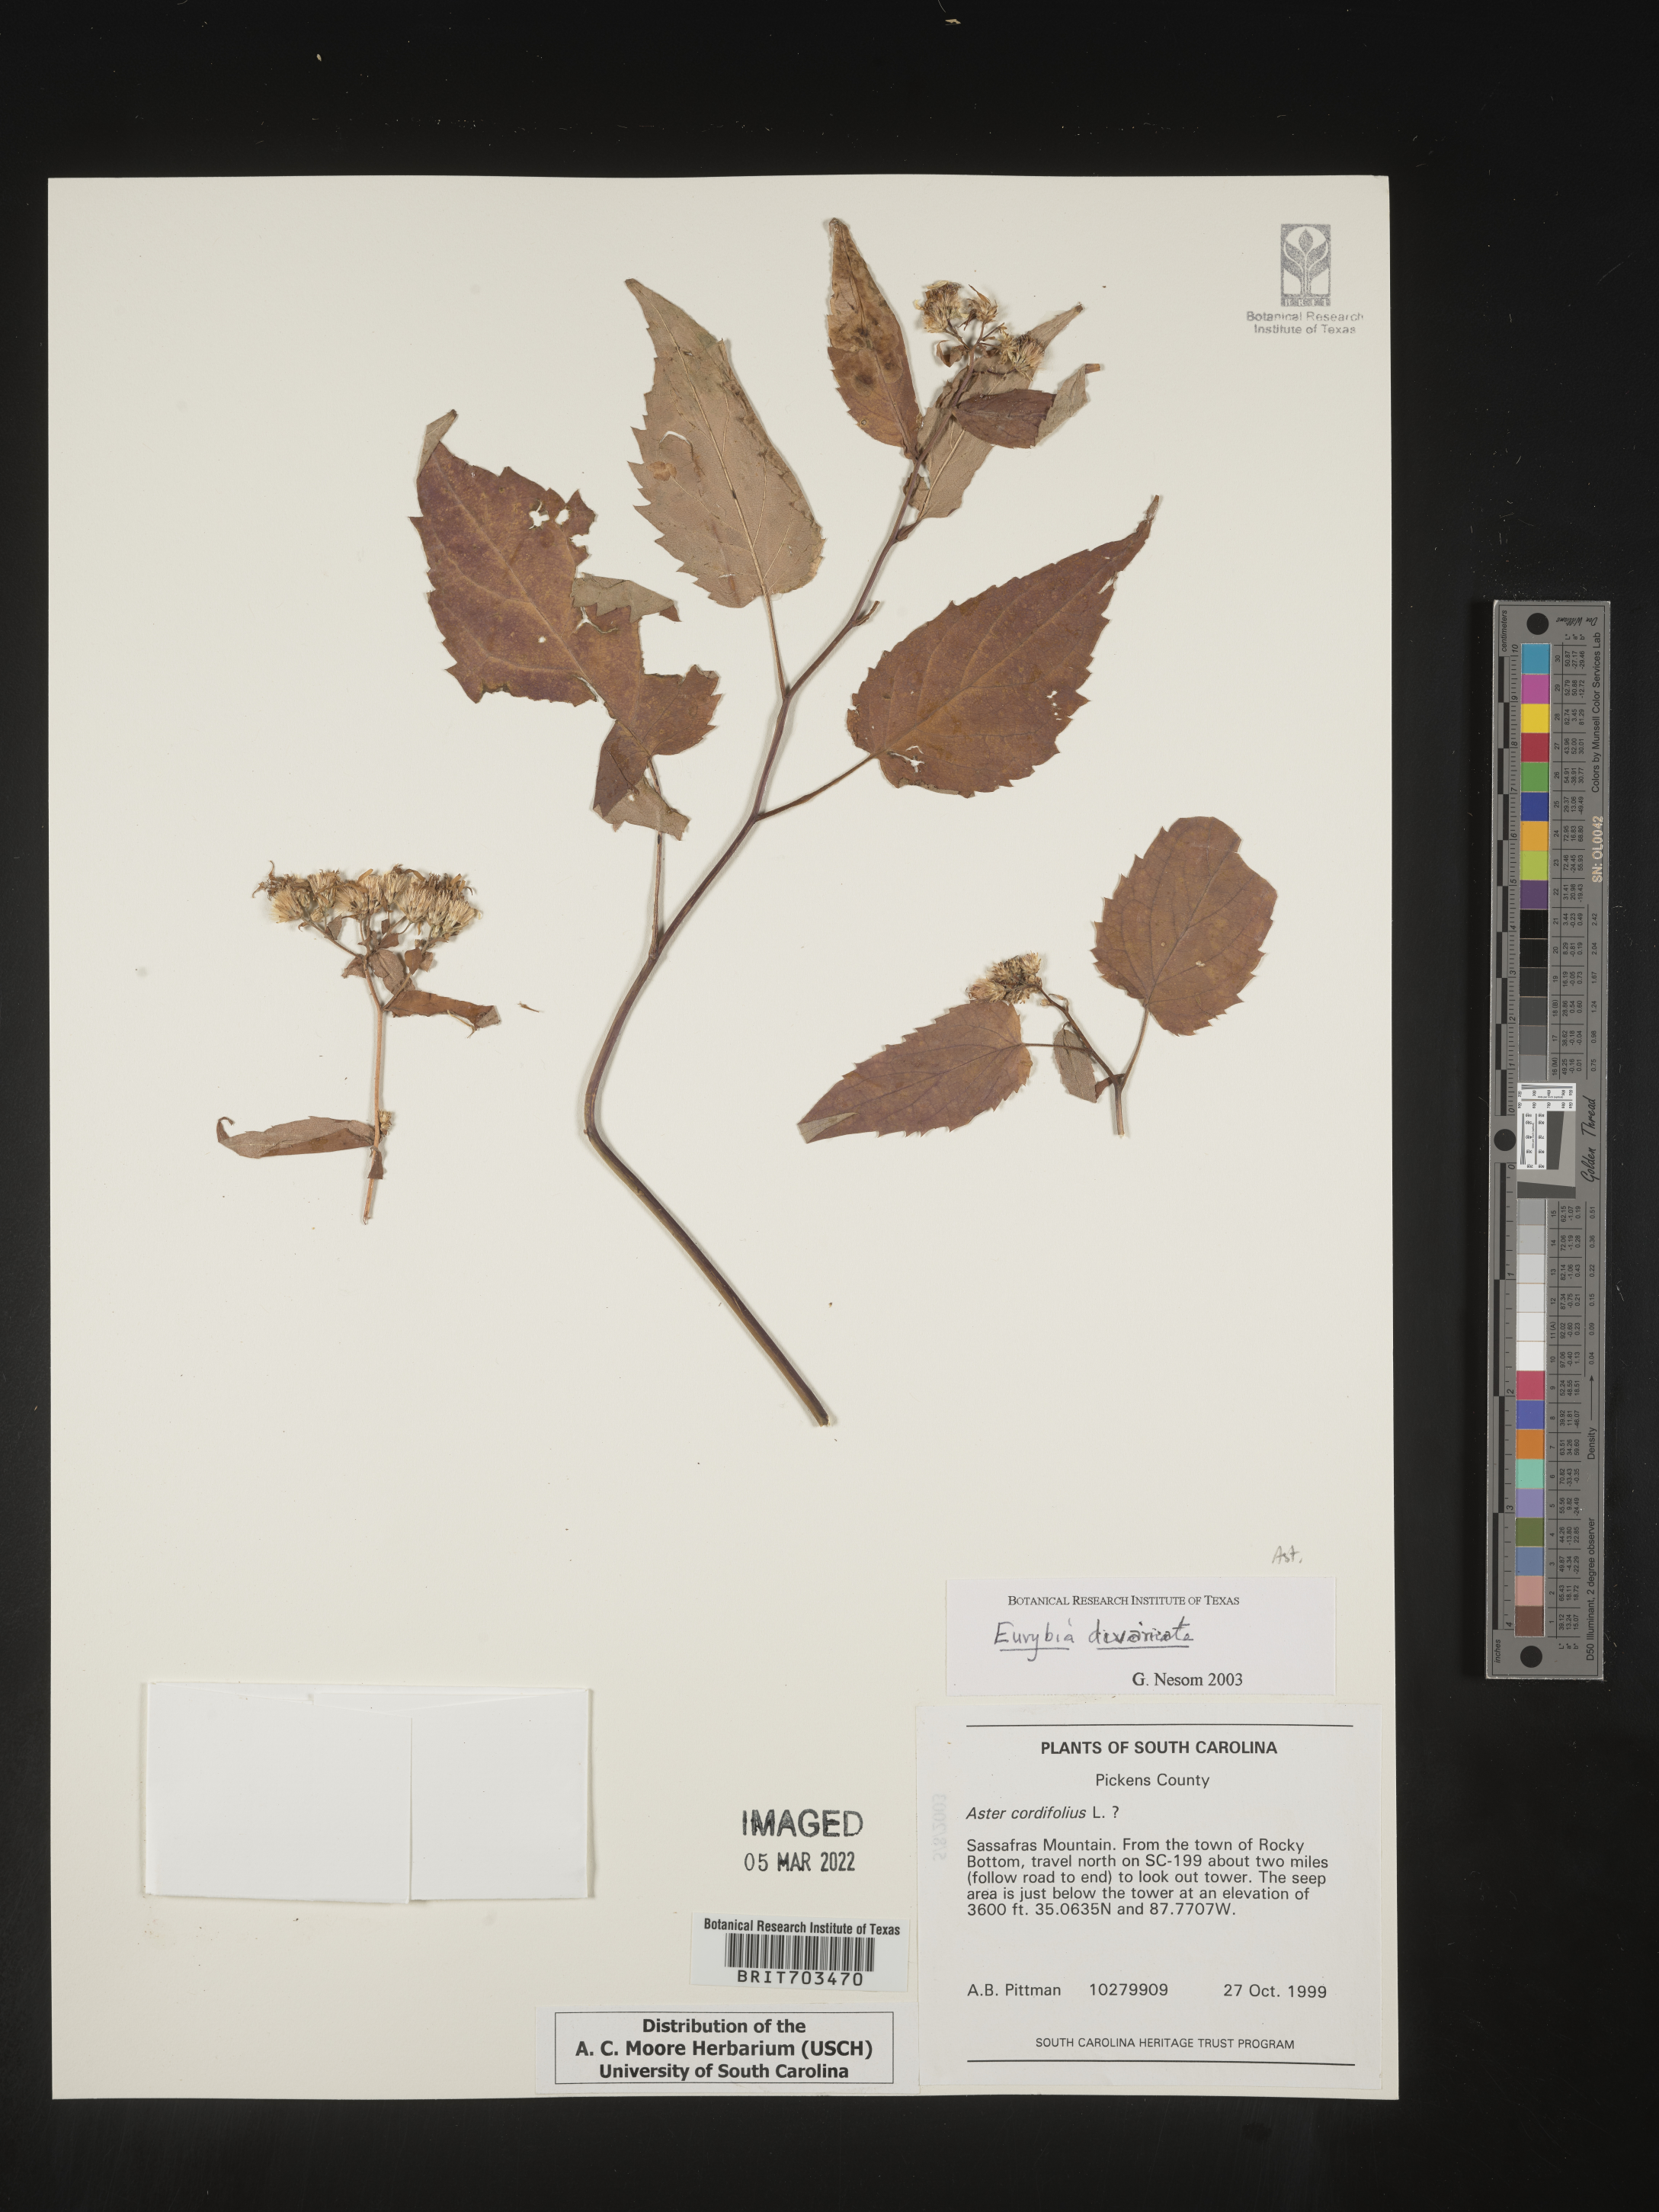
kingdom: Plantae
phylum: Tracheophyta
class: Magnoliopsida
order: Asterales
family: Asteraceae
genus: Eurybia
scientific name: Eurybia divaricata
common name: White wood aster
